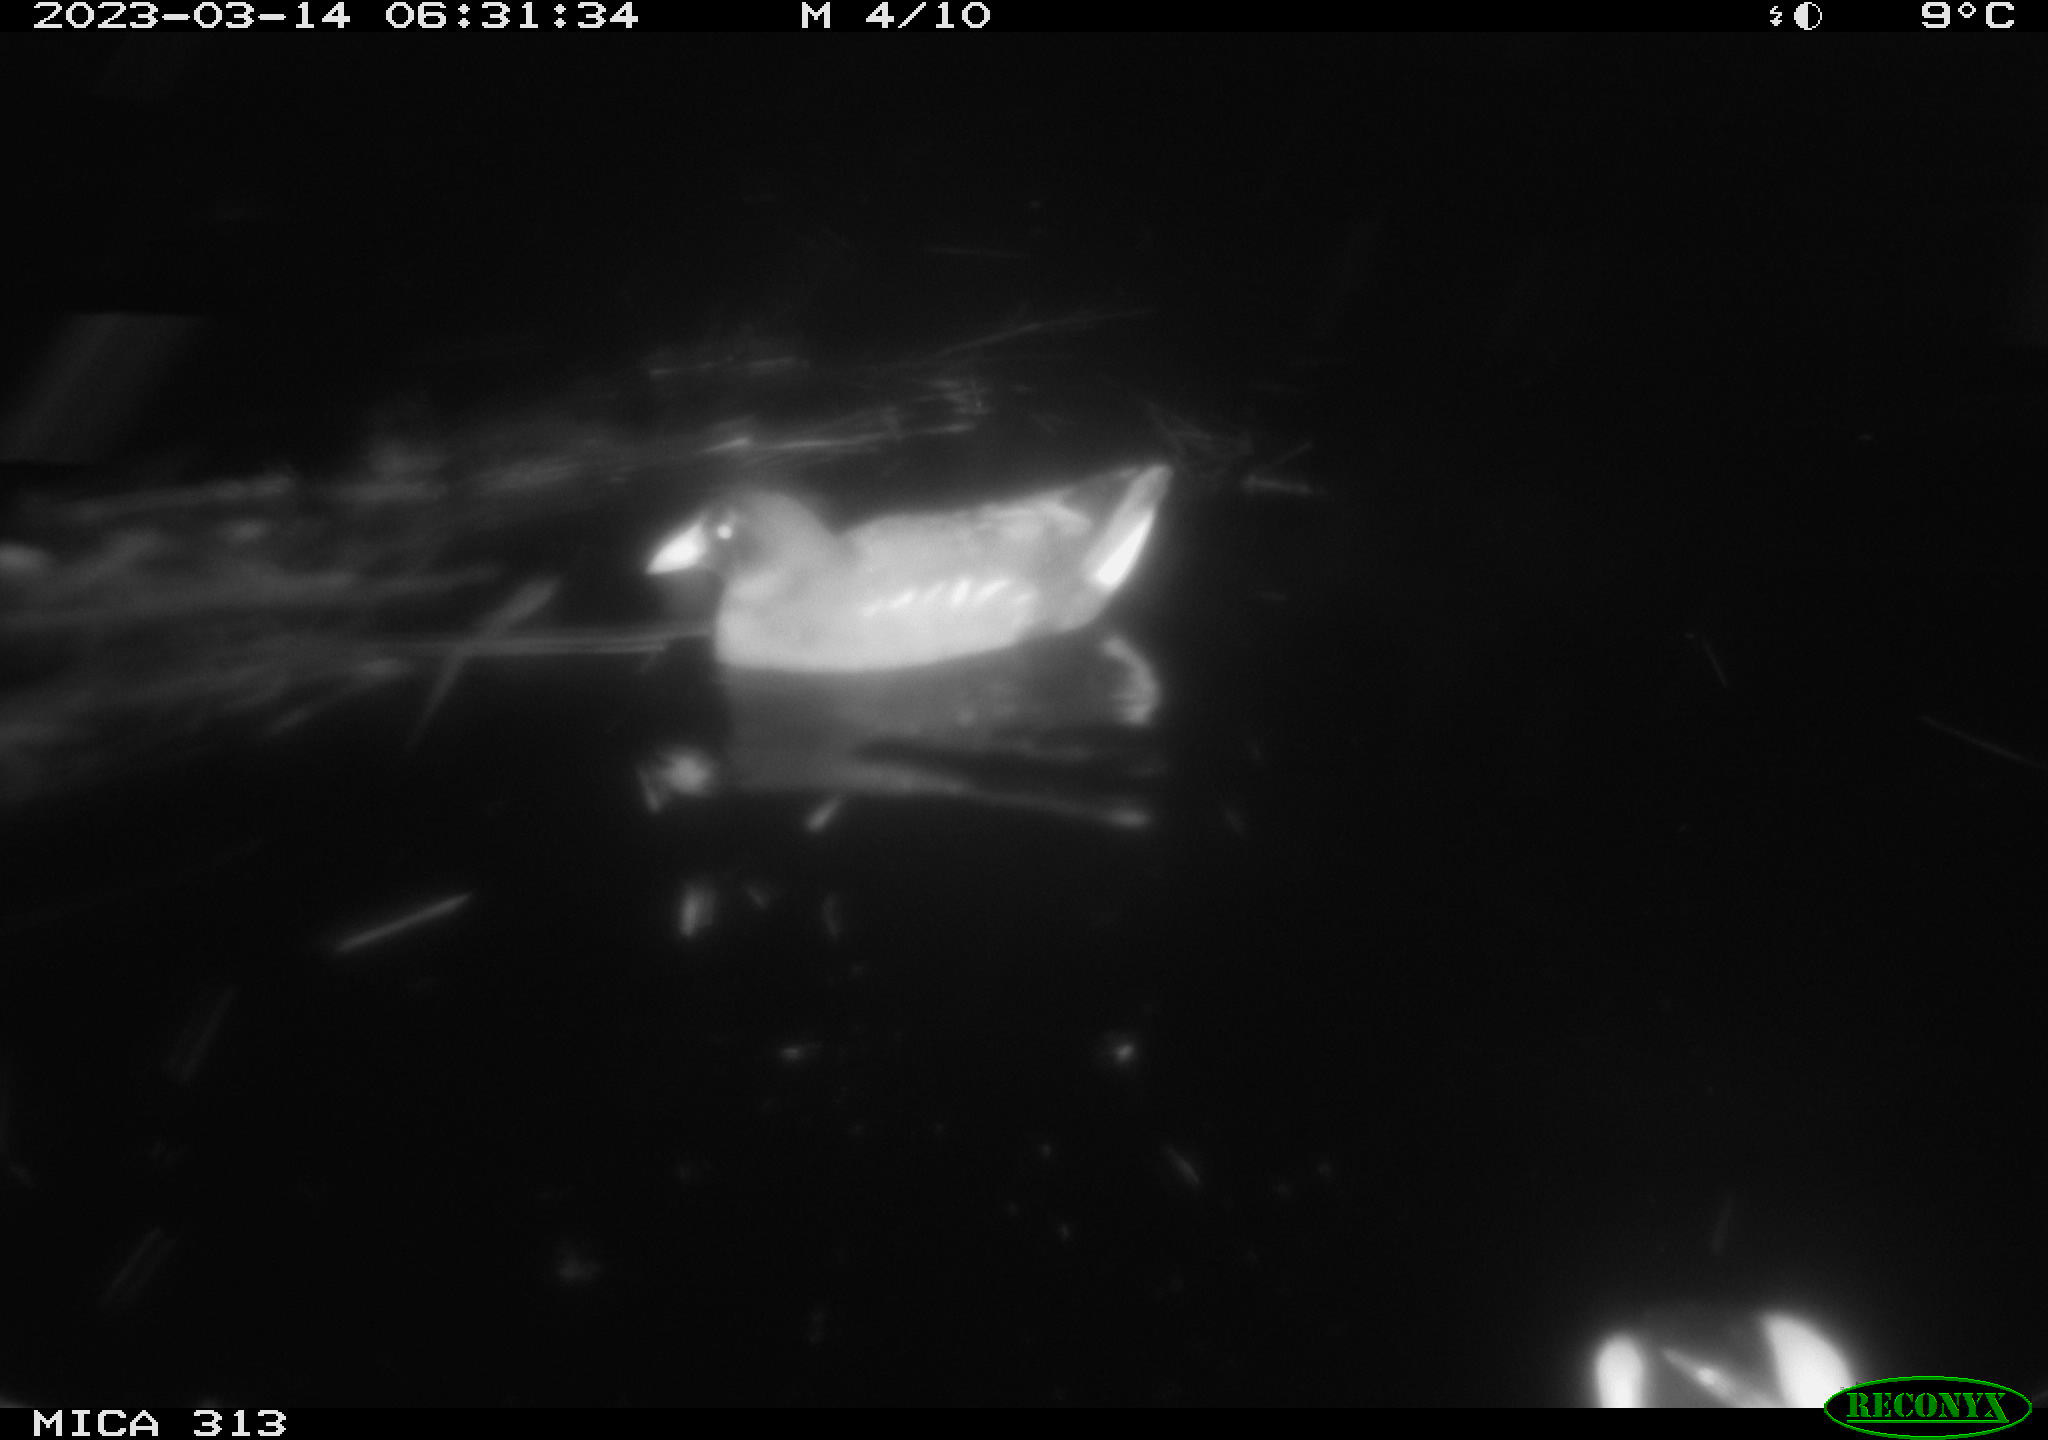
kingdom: Animalia
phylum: Chordata
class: Mammalia
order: Rodentia
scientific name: Rodentia
